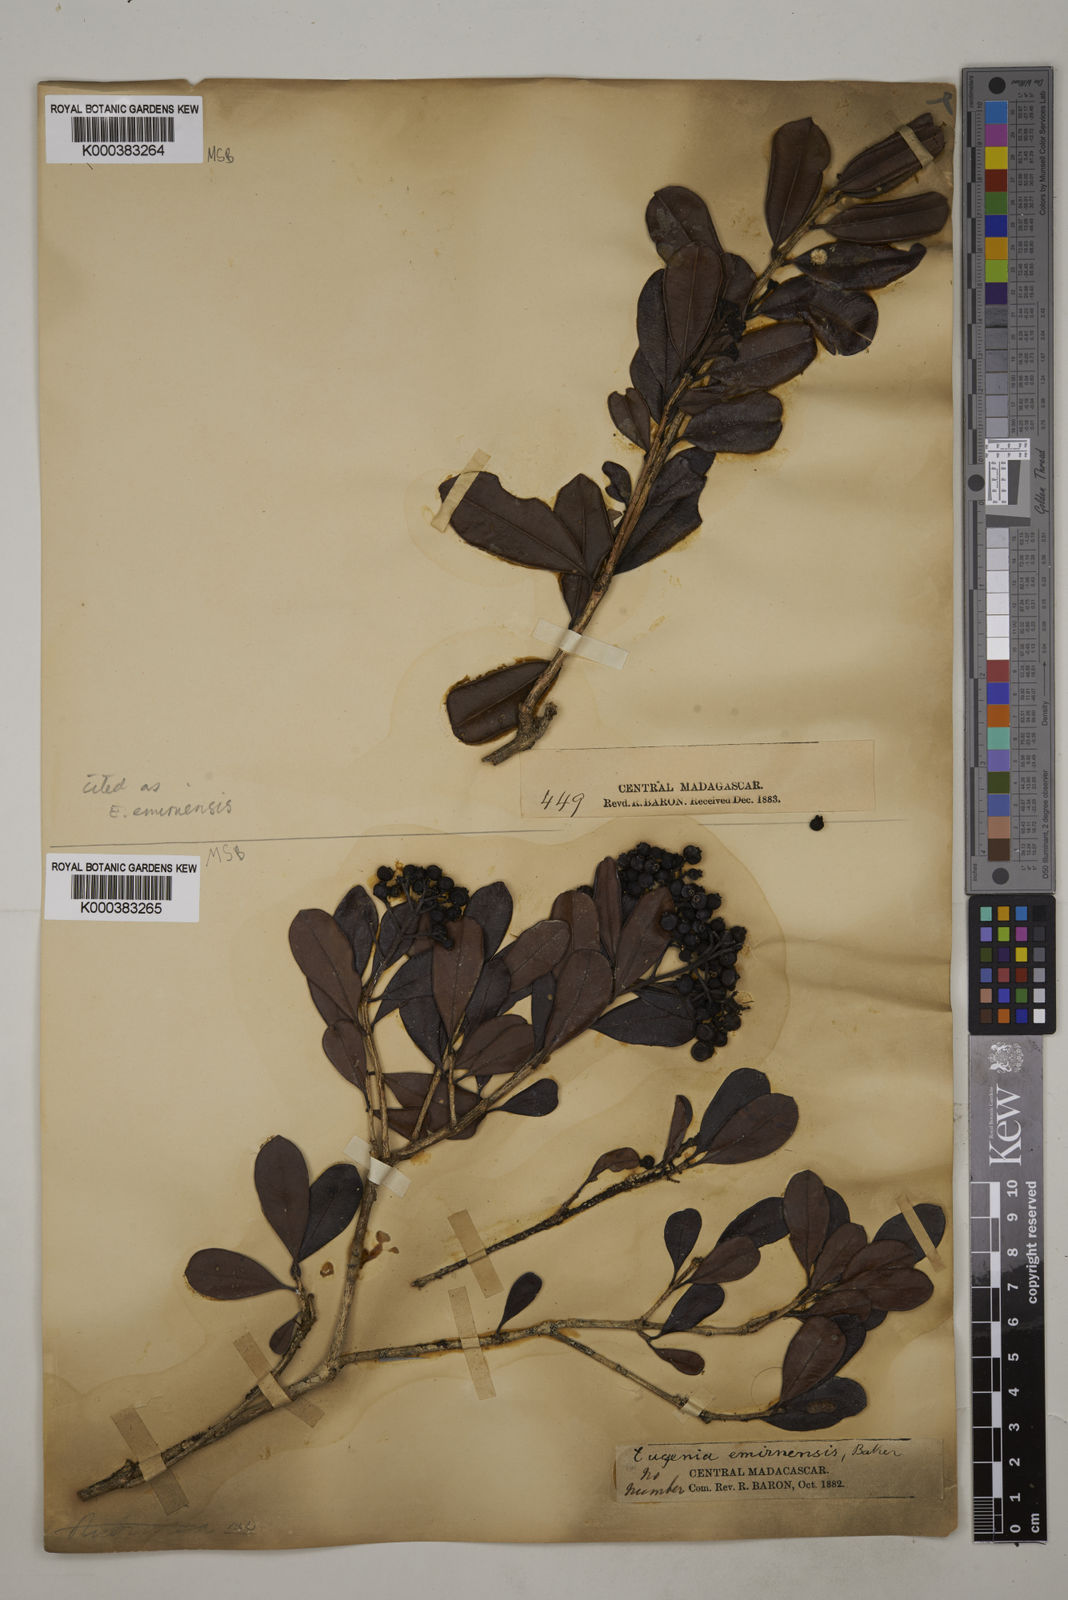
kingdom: Plantae
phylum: Tracheophyta
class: Magnoliopsida
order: Myrtales
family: Myrtaceae
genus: Syzygium
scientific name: Syzygium emirnense
